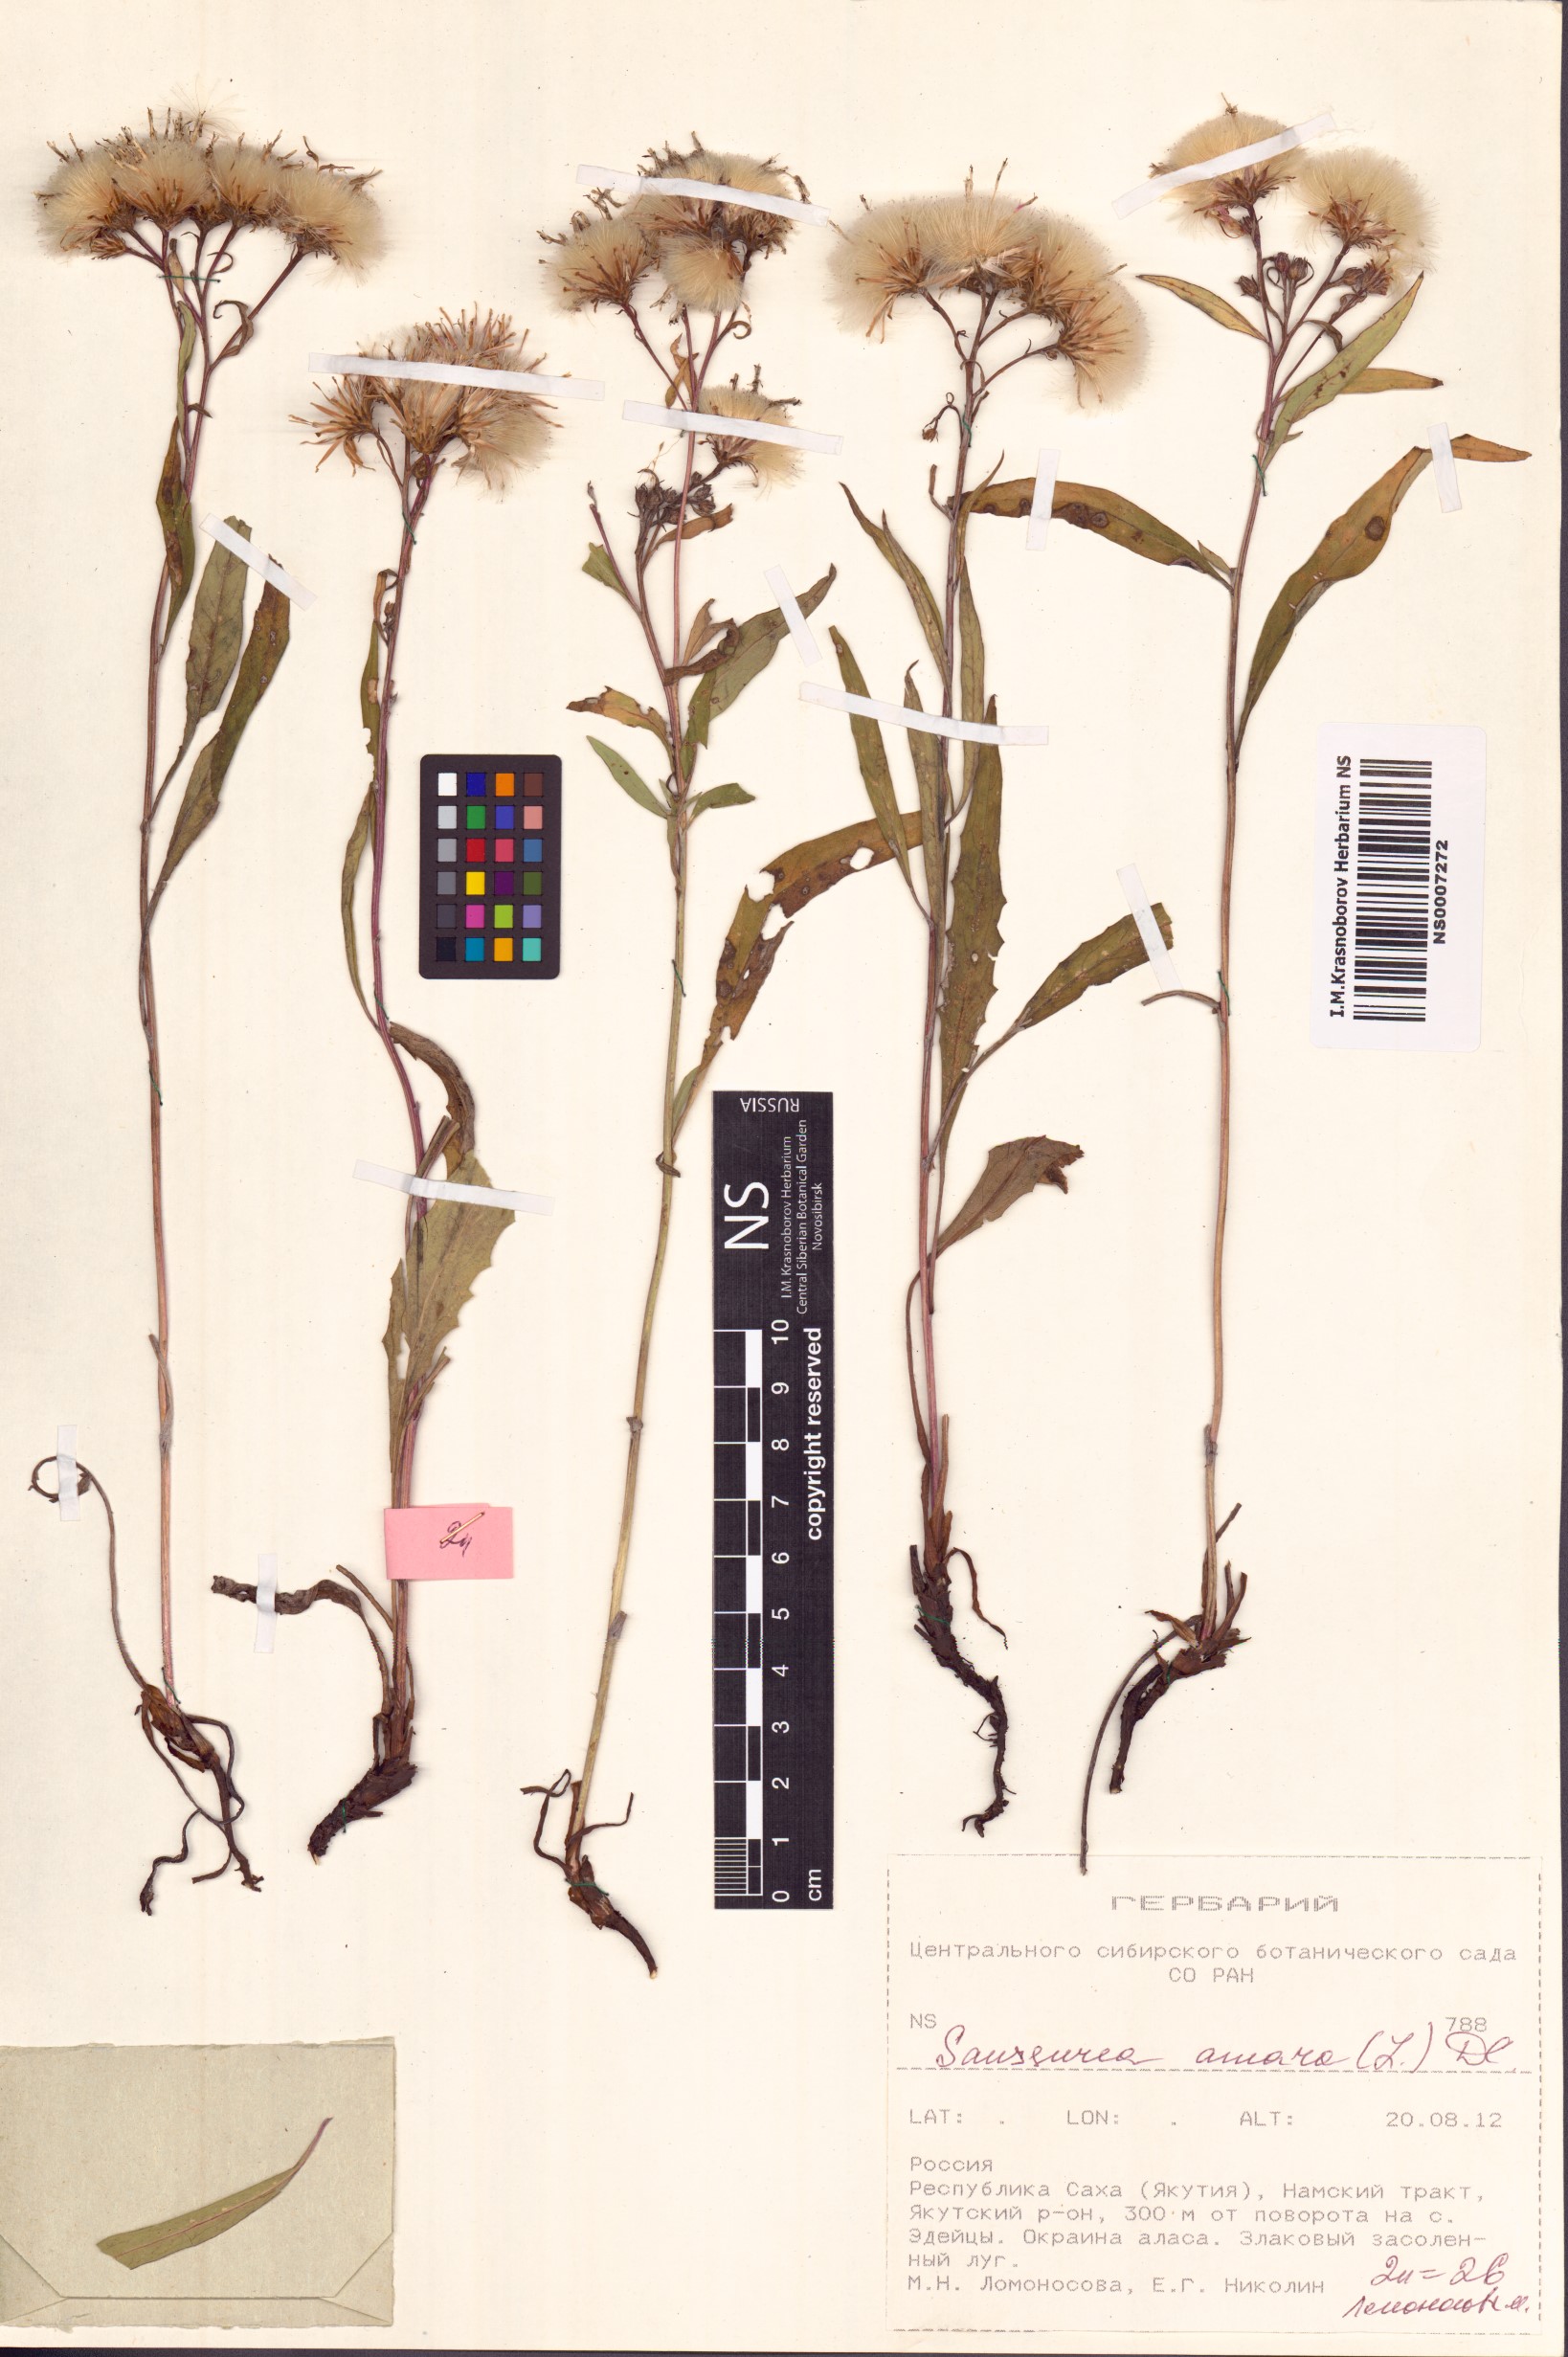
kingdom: Plantae
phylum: Tracheophyta
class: Magnoliopsida
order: Asterales
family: Asteraceae
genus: Saussurea
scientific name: Saussurea amara
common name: Alberta sawwort
